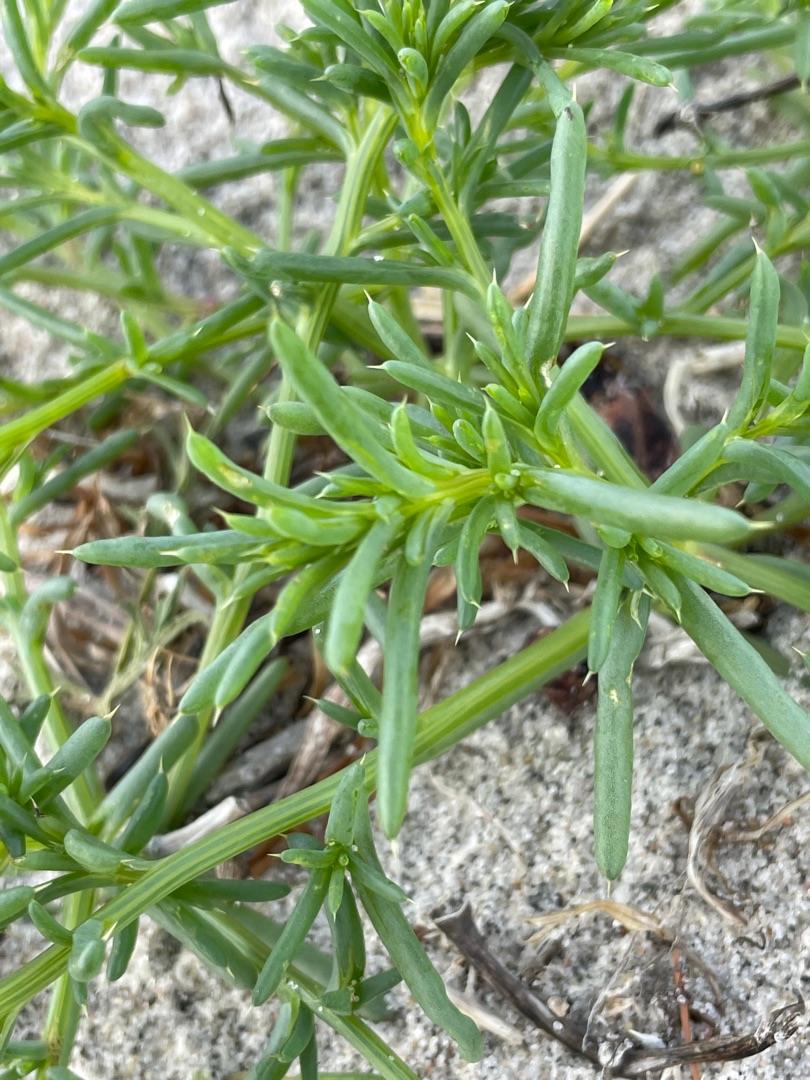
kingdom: Plantae
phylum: Tracheophyta
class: Magnoliopsida
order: Caryophyllales
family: Amaranthaceae
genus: Salsola
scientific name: Salsola kali
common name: Sodaurt
